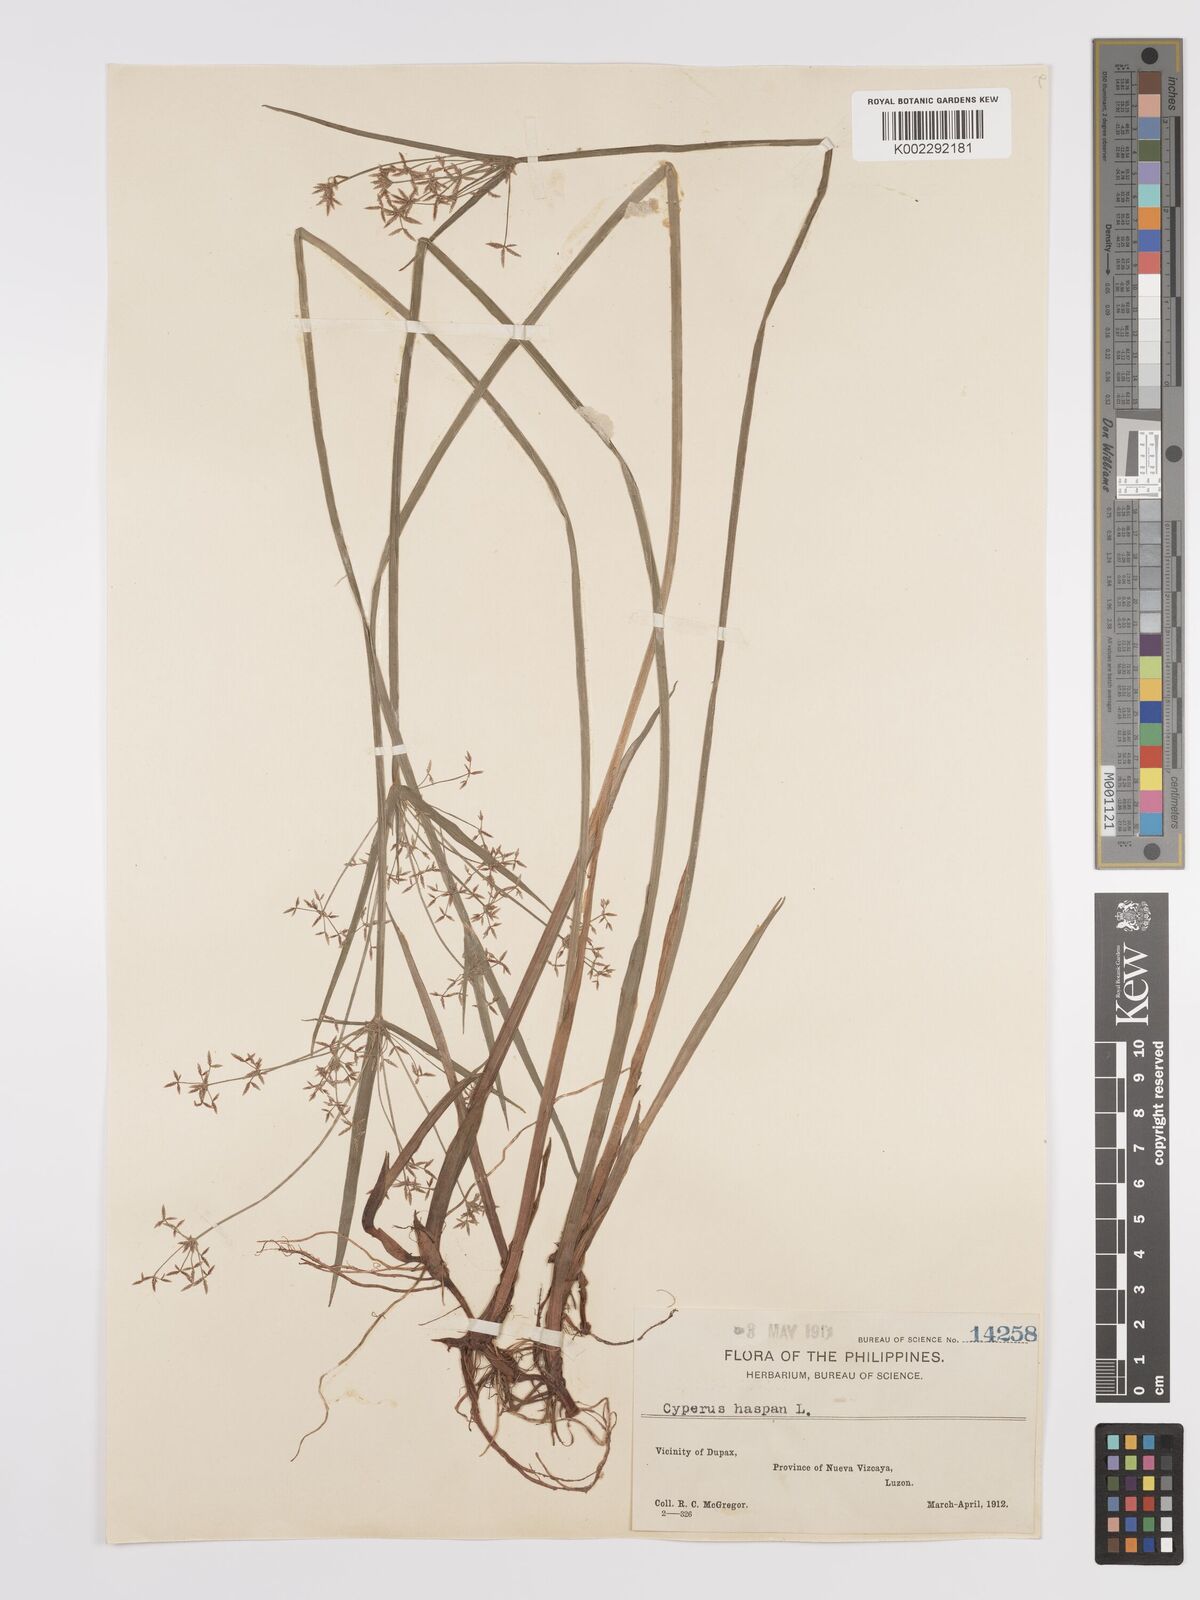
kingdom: Plantae
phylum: Tracheophyta
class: Liliopsida
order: Poales
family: Cyperaceae
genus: Cyperus
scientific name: Cyperus haspan
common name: Haspan flatsedge
